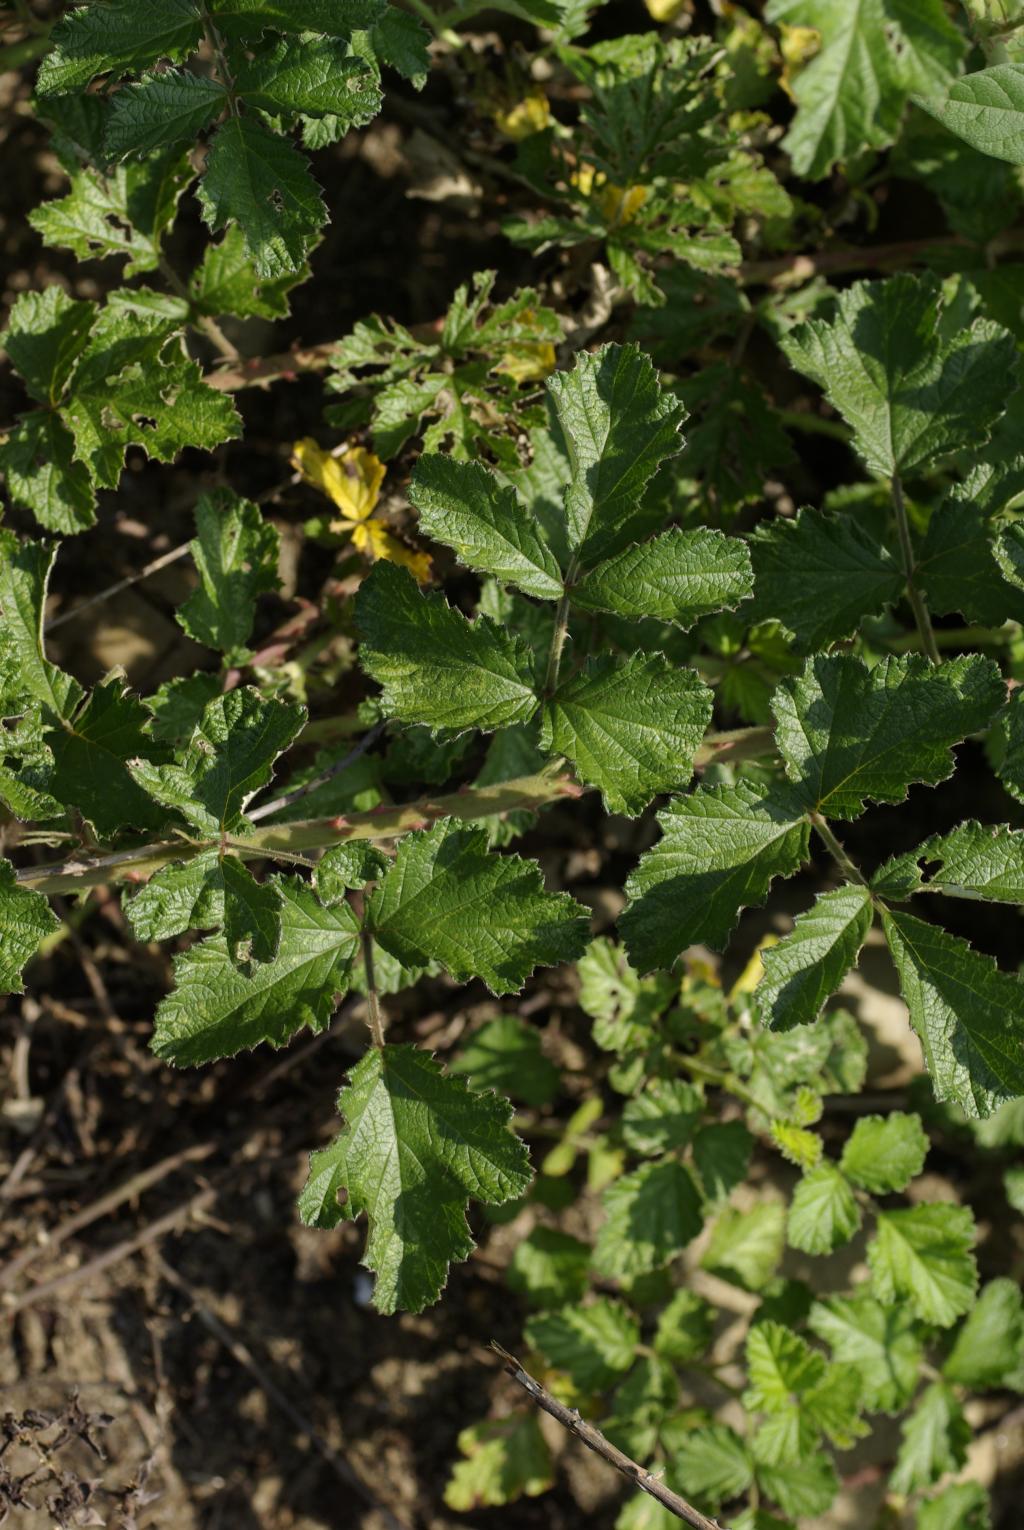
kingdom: Plantae
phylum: Tracheophyta
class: Magnoliopsida
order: Rosales
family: Rosaceae
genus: Rubus
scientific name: Rubus parvifolius
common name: Threeleaf blackberry
